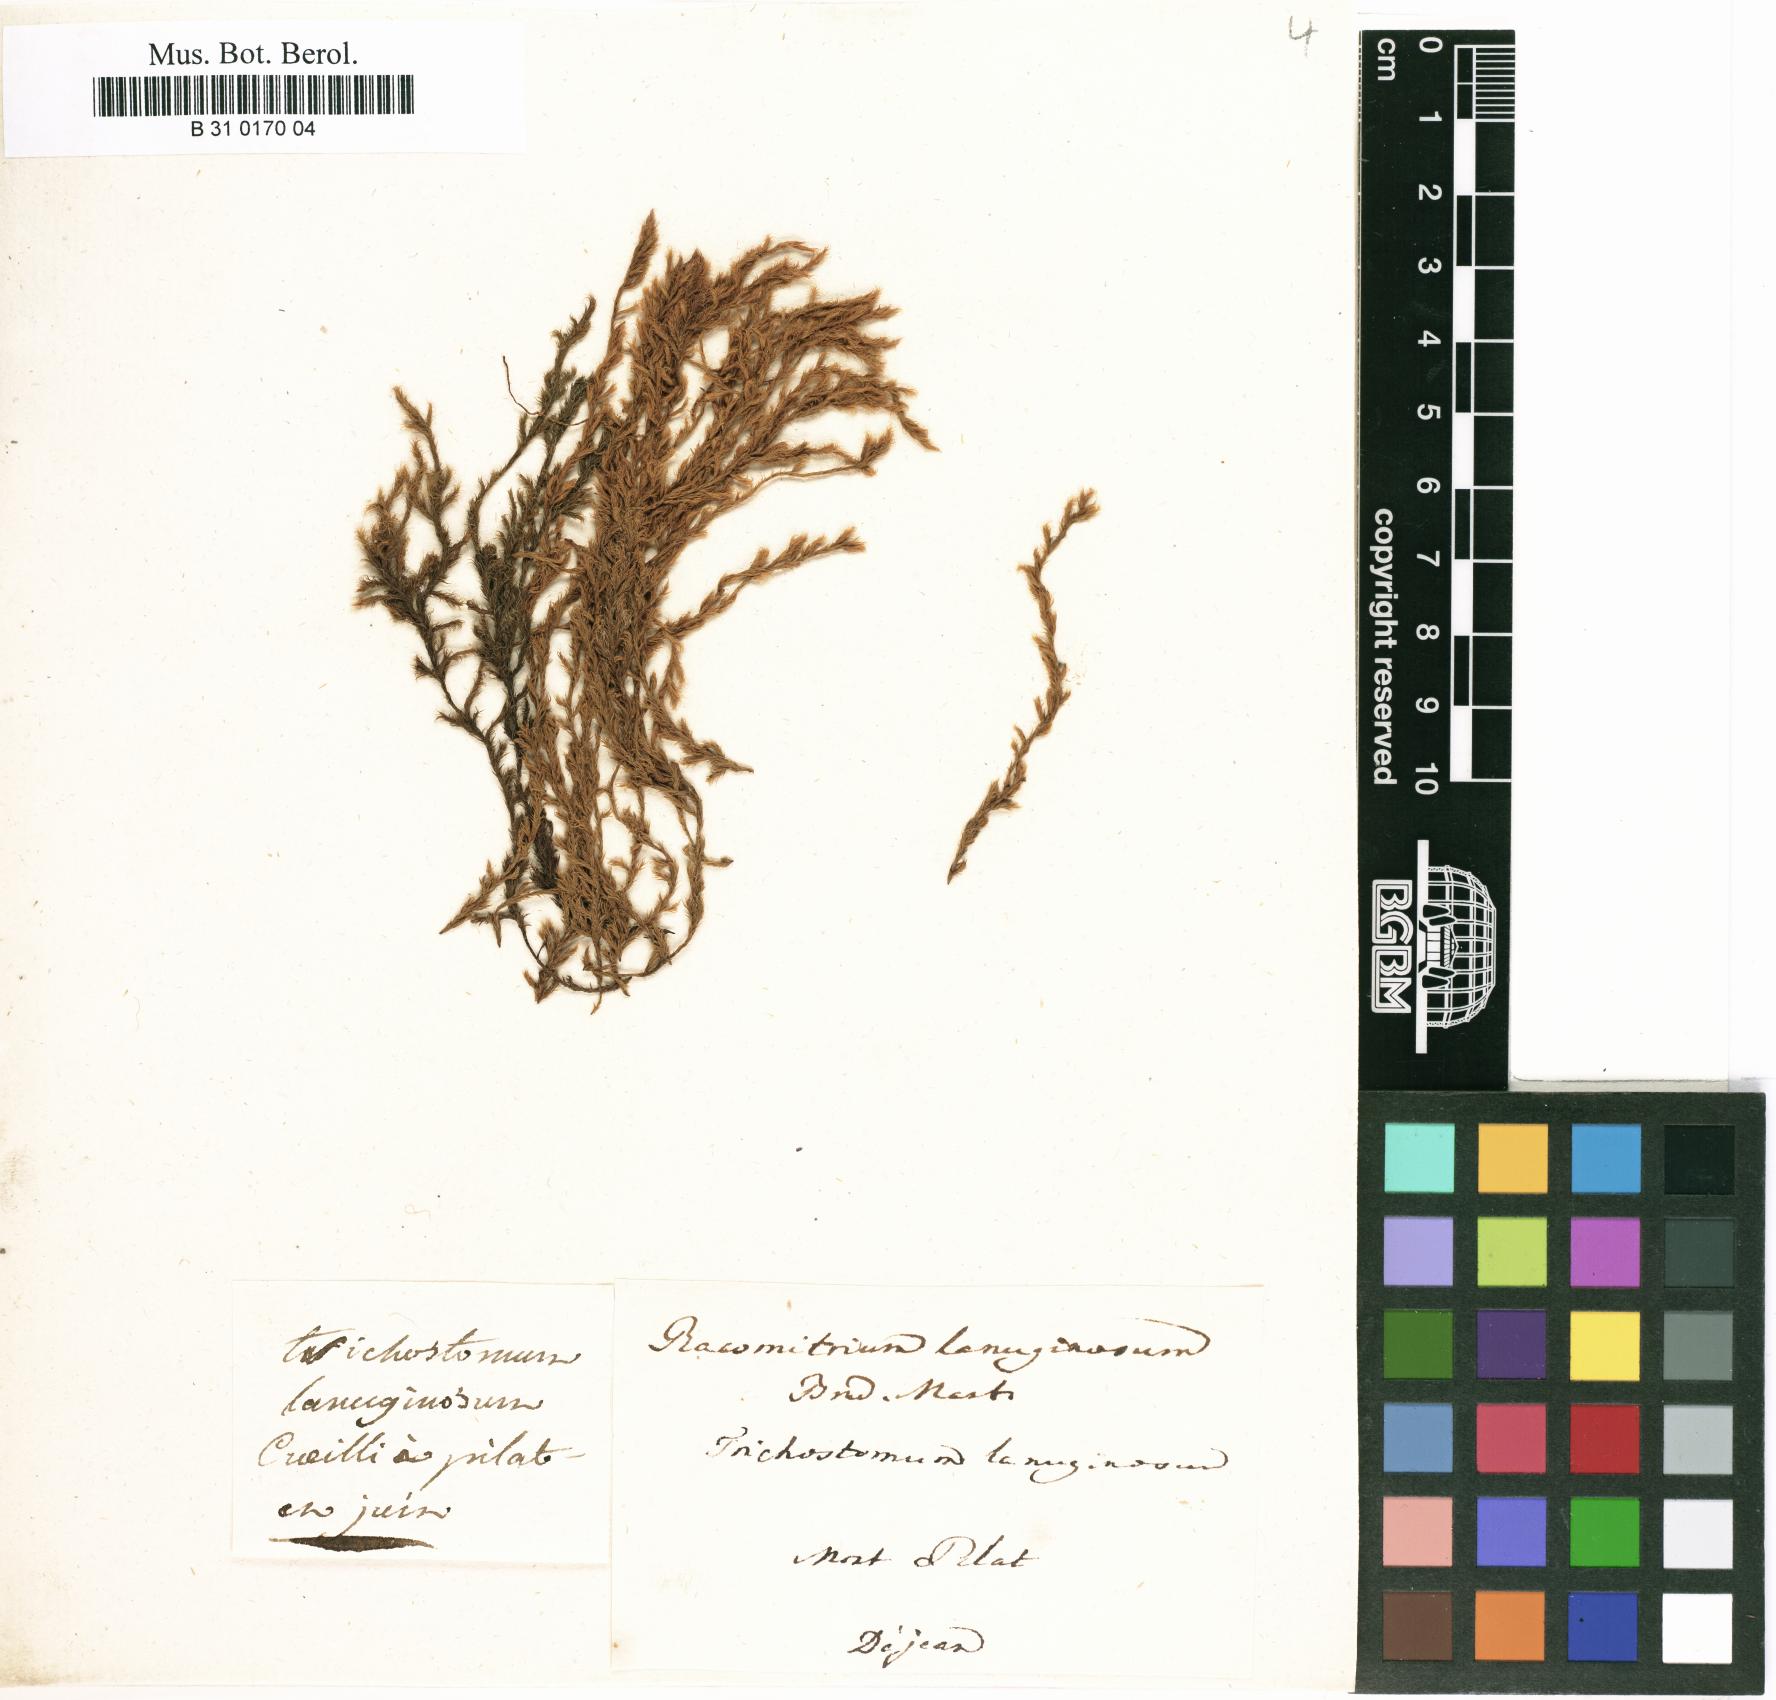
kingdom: Plantae
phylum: Bryophyta
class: Bryopsida
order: Grimmiales
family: Grimmiaceae
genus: Racomitrium
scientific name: Racomitrium lanuginosum
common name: Hoary rock moss
